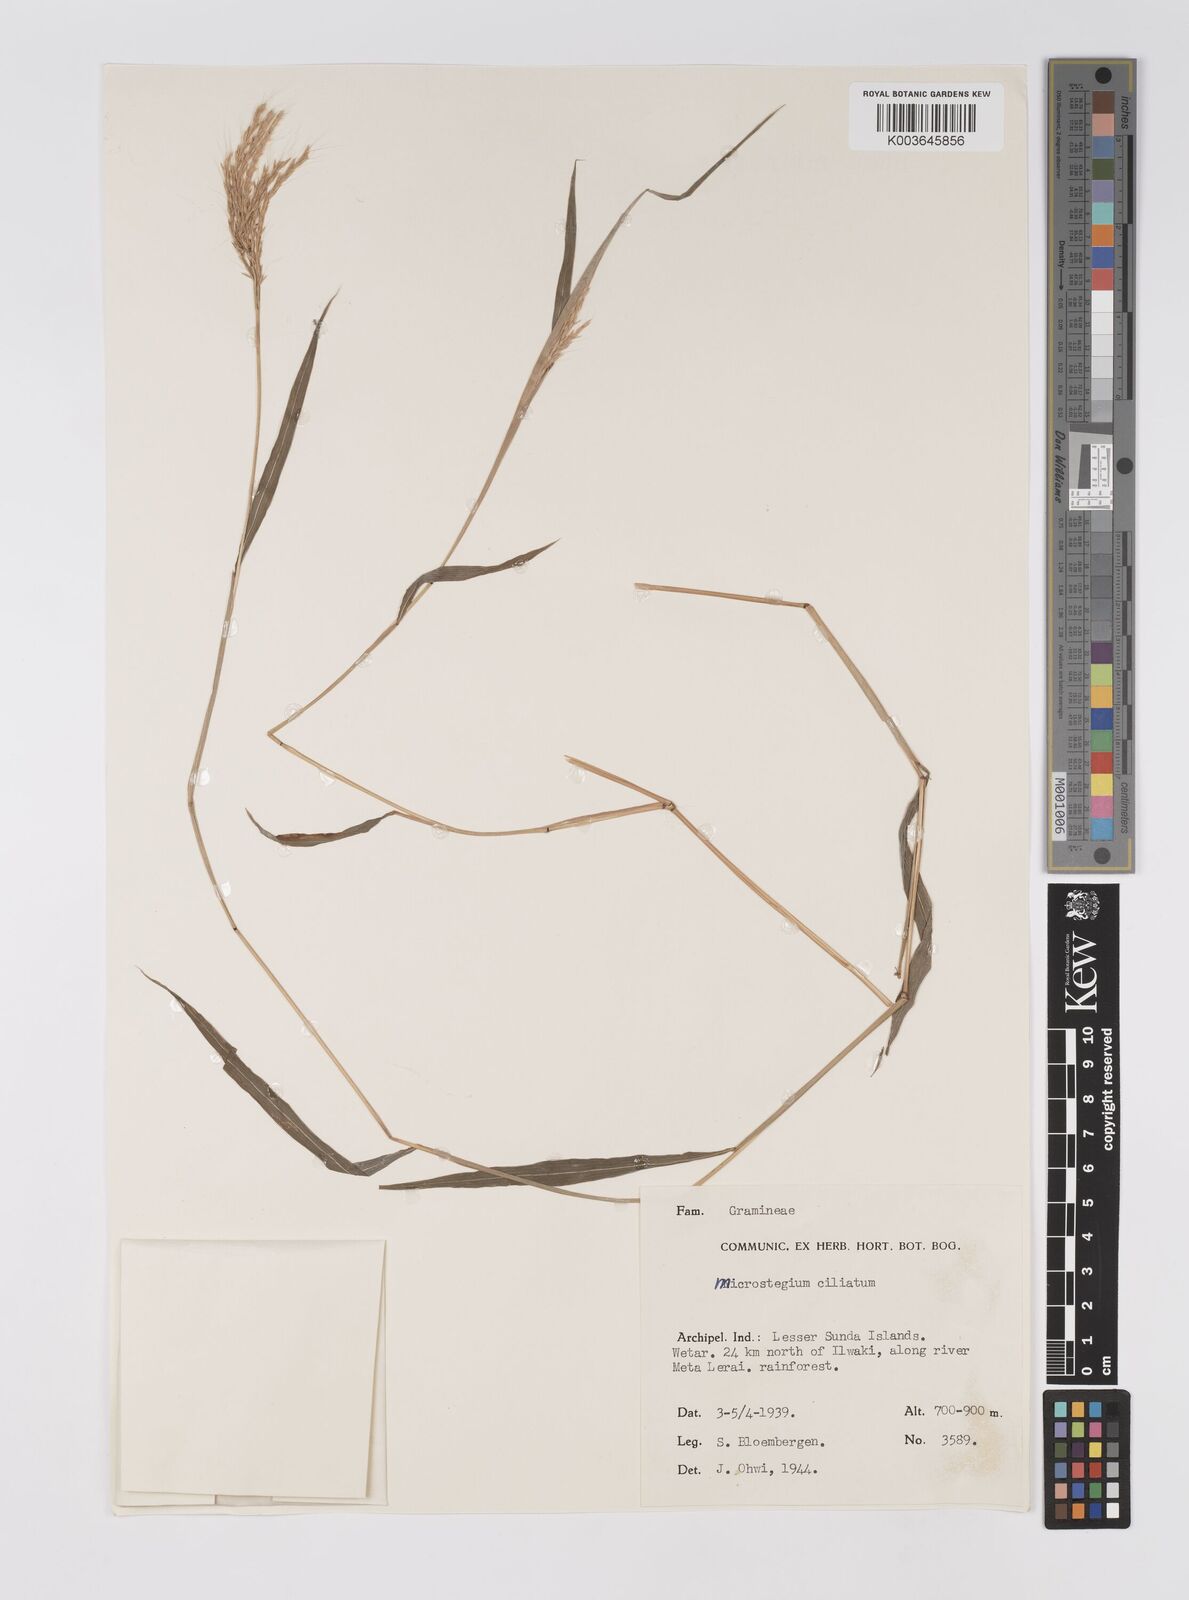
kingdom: Plantae
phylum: Tracheophyta
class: Liliopsida
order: Poales
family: Poaceae
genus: Microstegium
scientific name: Microstegium fasciculatum
